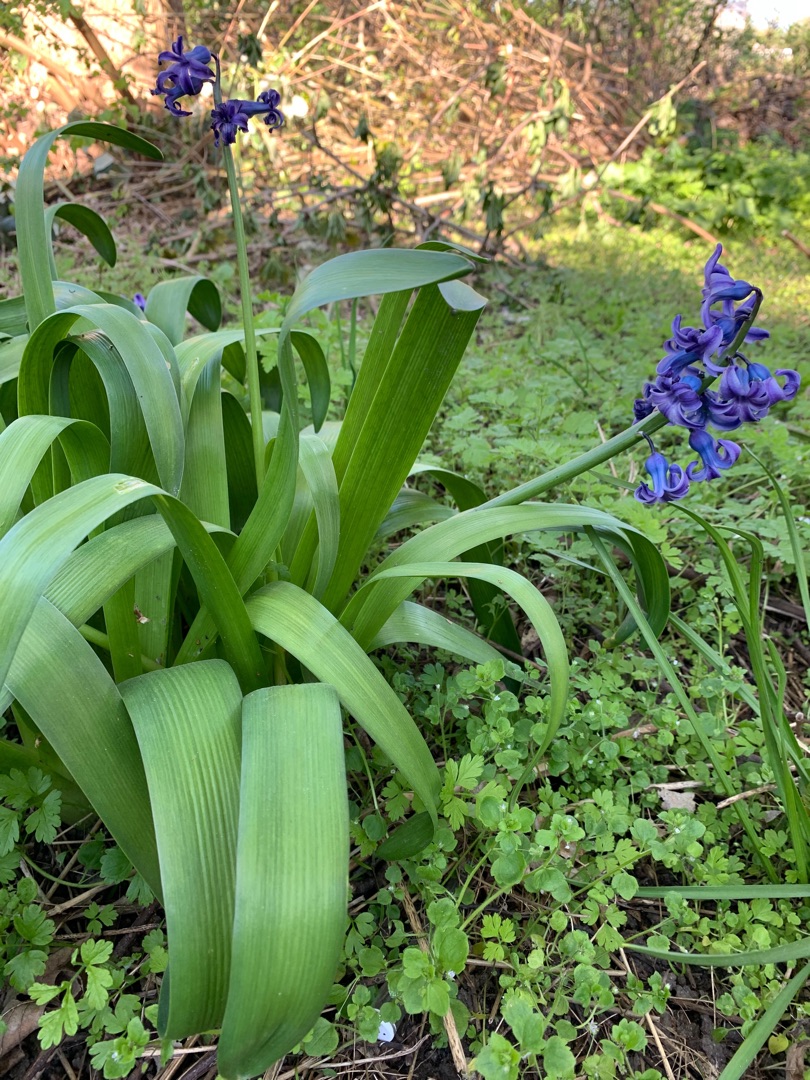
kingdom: Plantae
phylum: Tracheophyta
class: Liliopsida
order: Asparagales
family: Asparagaceae
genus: Hyacinthus
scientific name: Hyacinthus orientalis
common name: Hyacint
